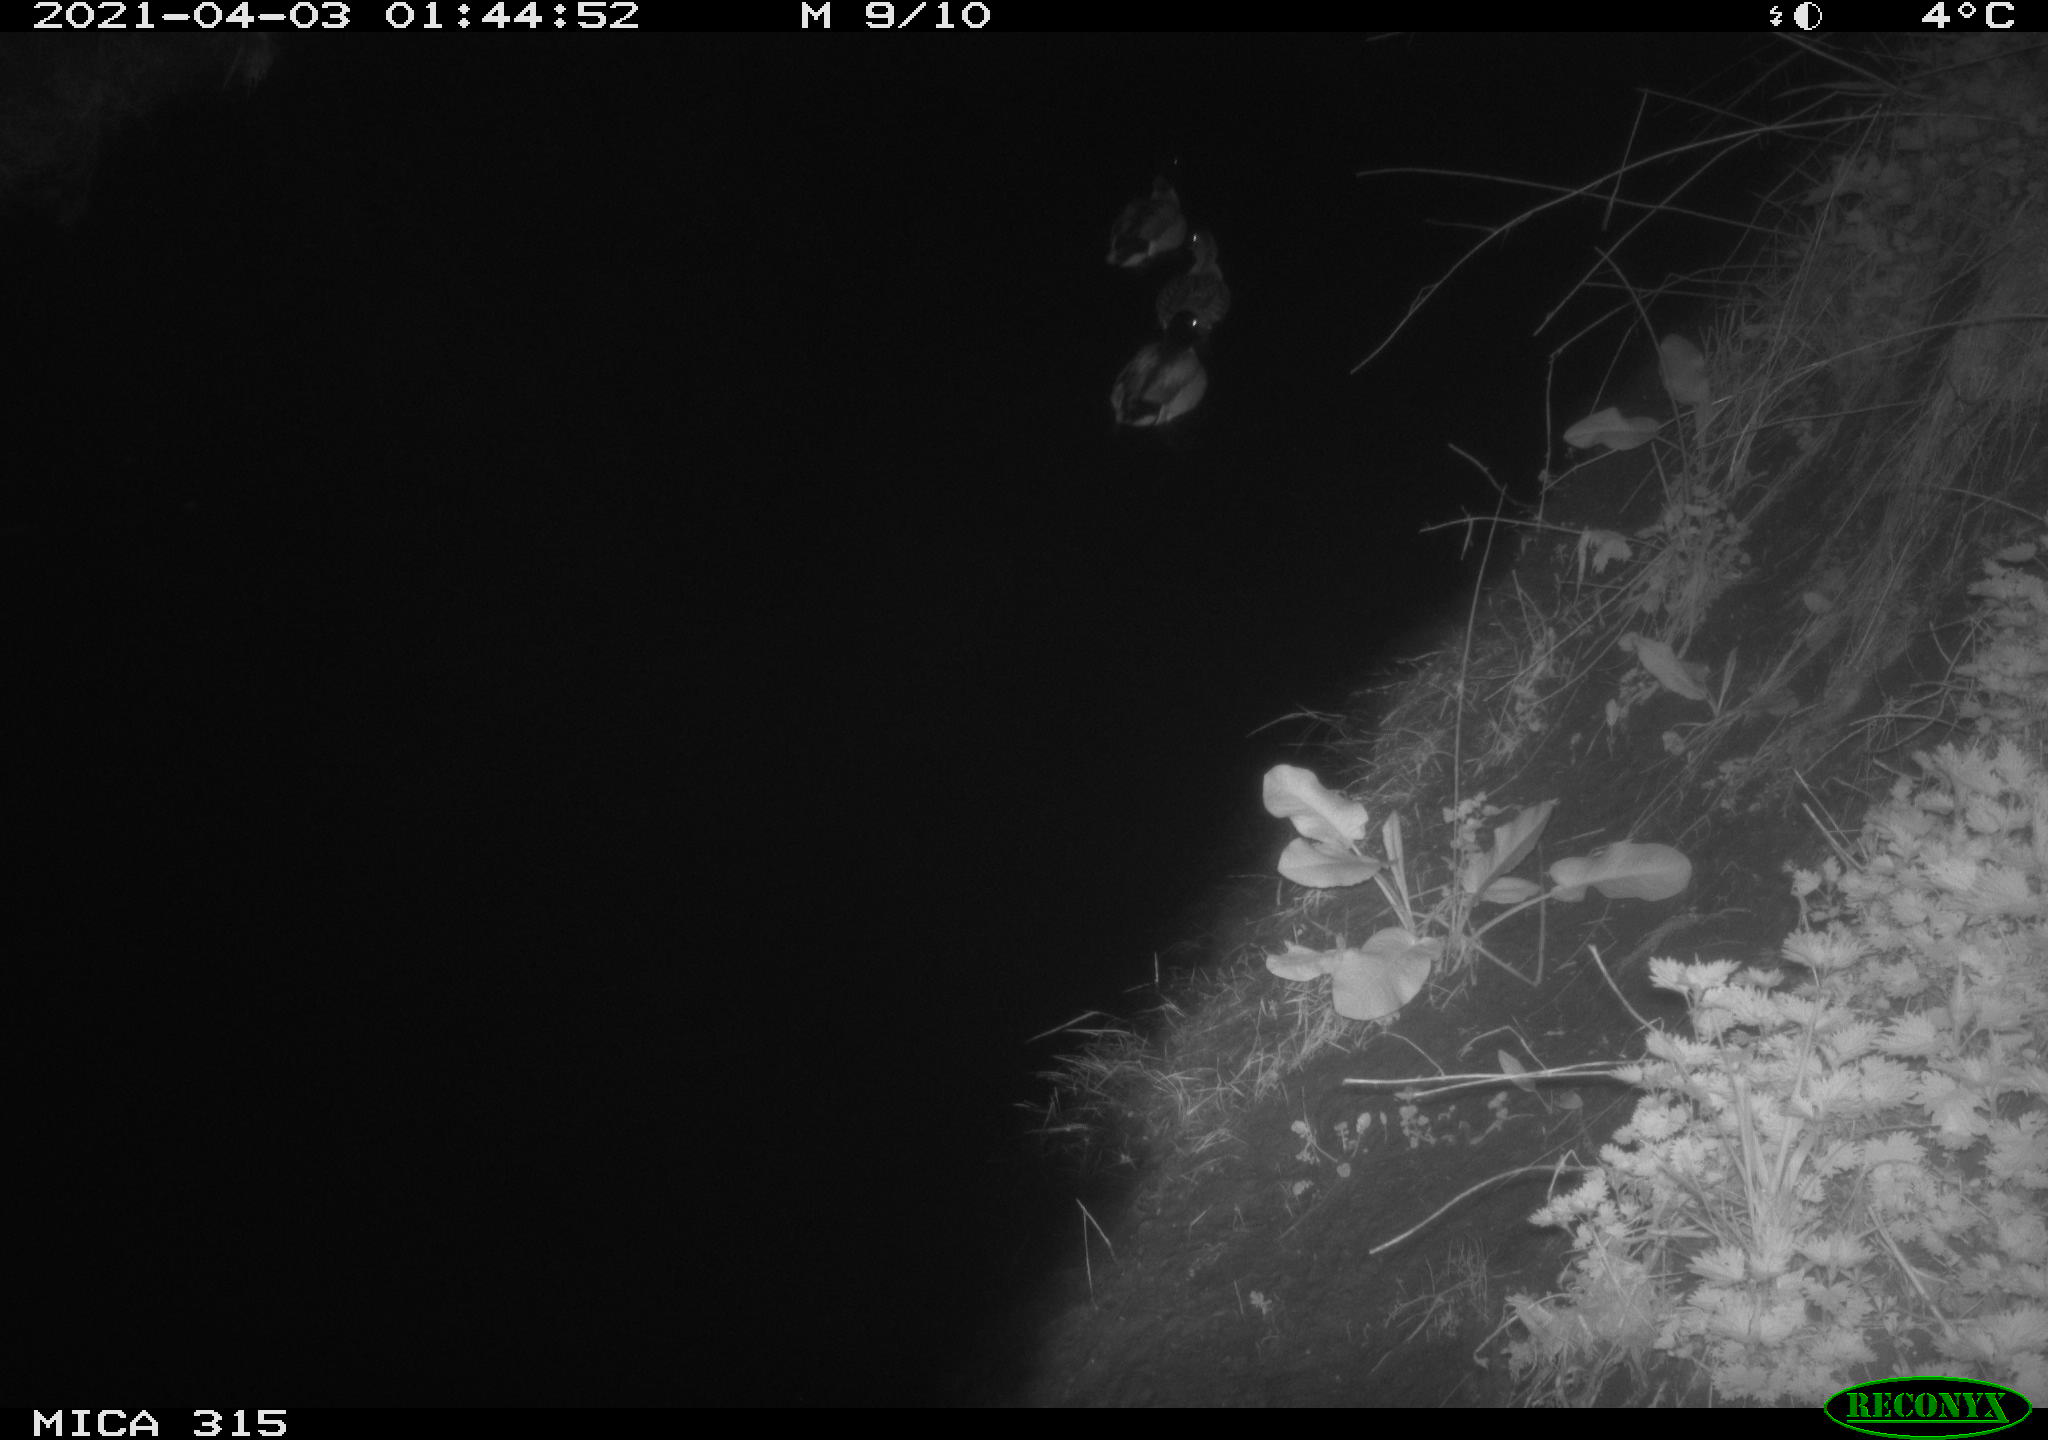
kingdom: Animalia
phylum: Chordata
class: Aves
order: Anseriformes
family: Anatidae
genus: Anas
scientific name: Anas platyrhynchos
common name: Mallard
